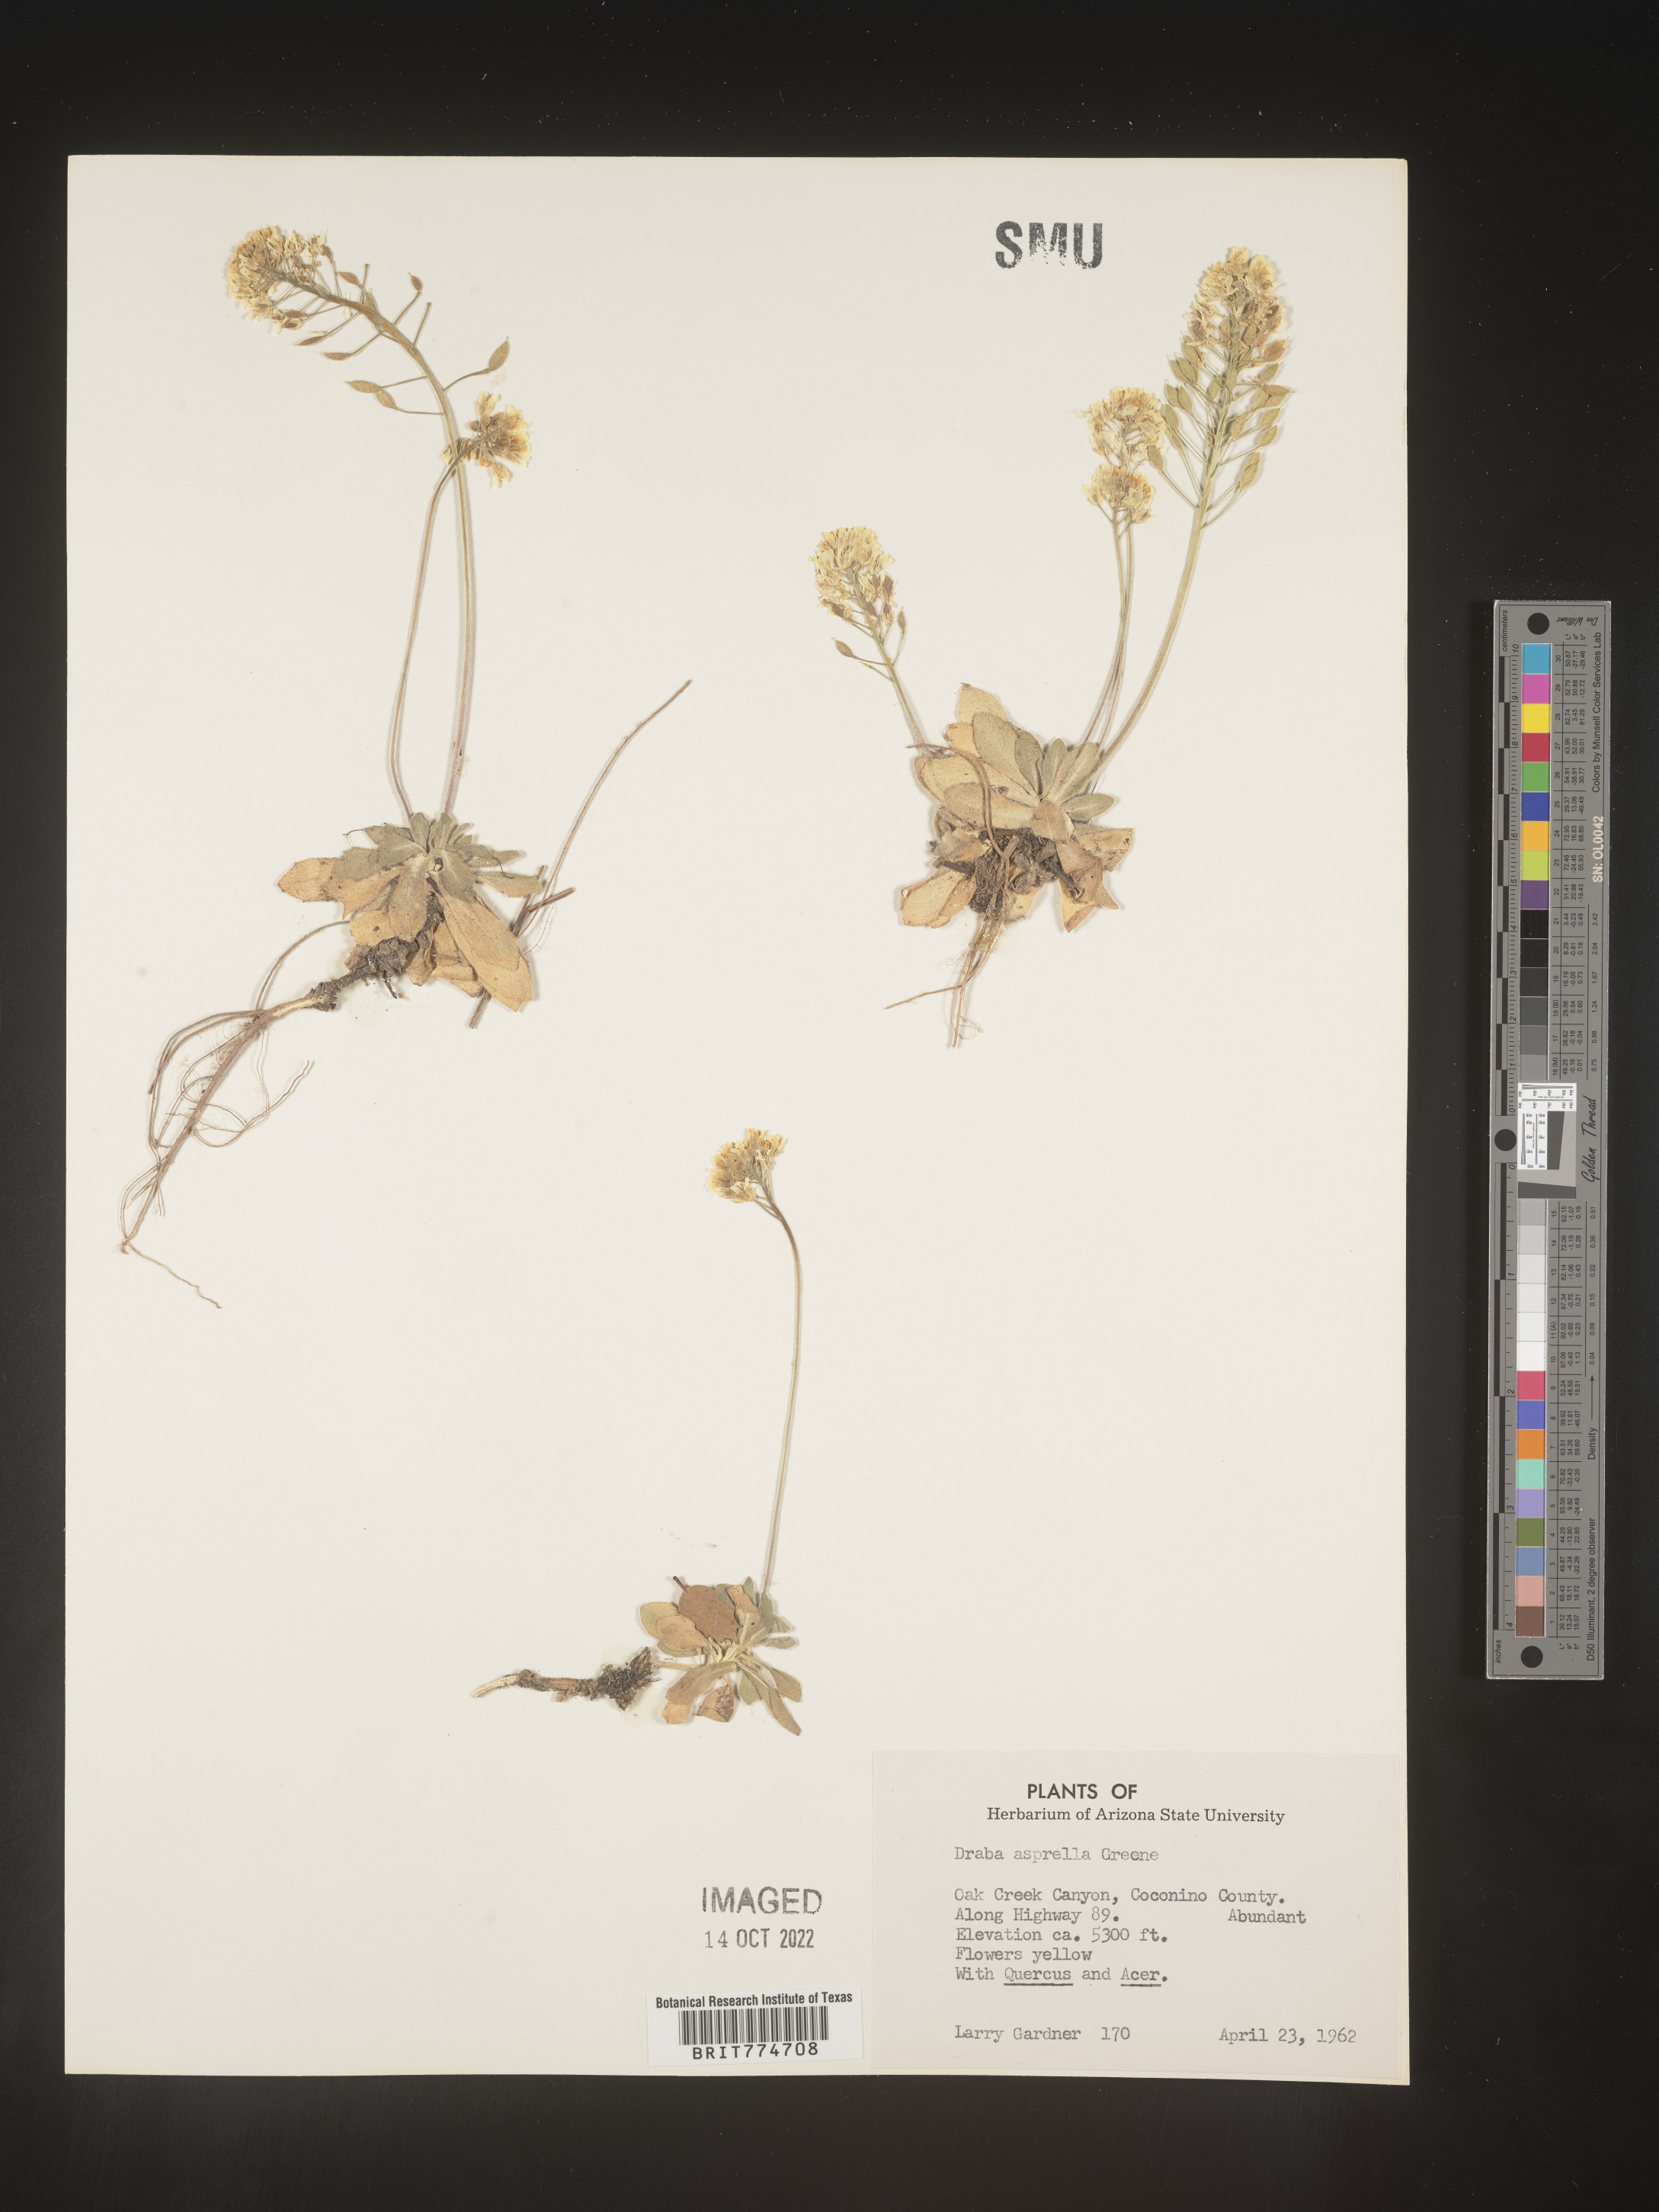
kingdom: Plantae
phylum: Tracheophyta
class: Magnoliopsida
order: Brassicales
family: Brassicaceae
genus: Draba
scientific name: Draba
